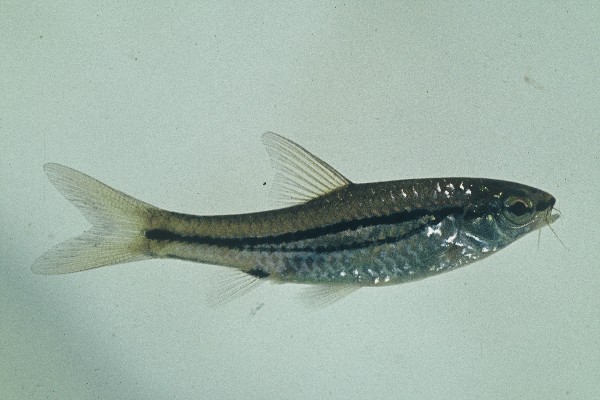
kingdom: Animalia
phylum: Chordata
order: Cypriniformes
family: Cyprinidae
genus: Enteromius
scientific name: Enteromius bifrenatus
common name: Hyphen barb
